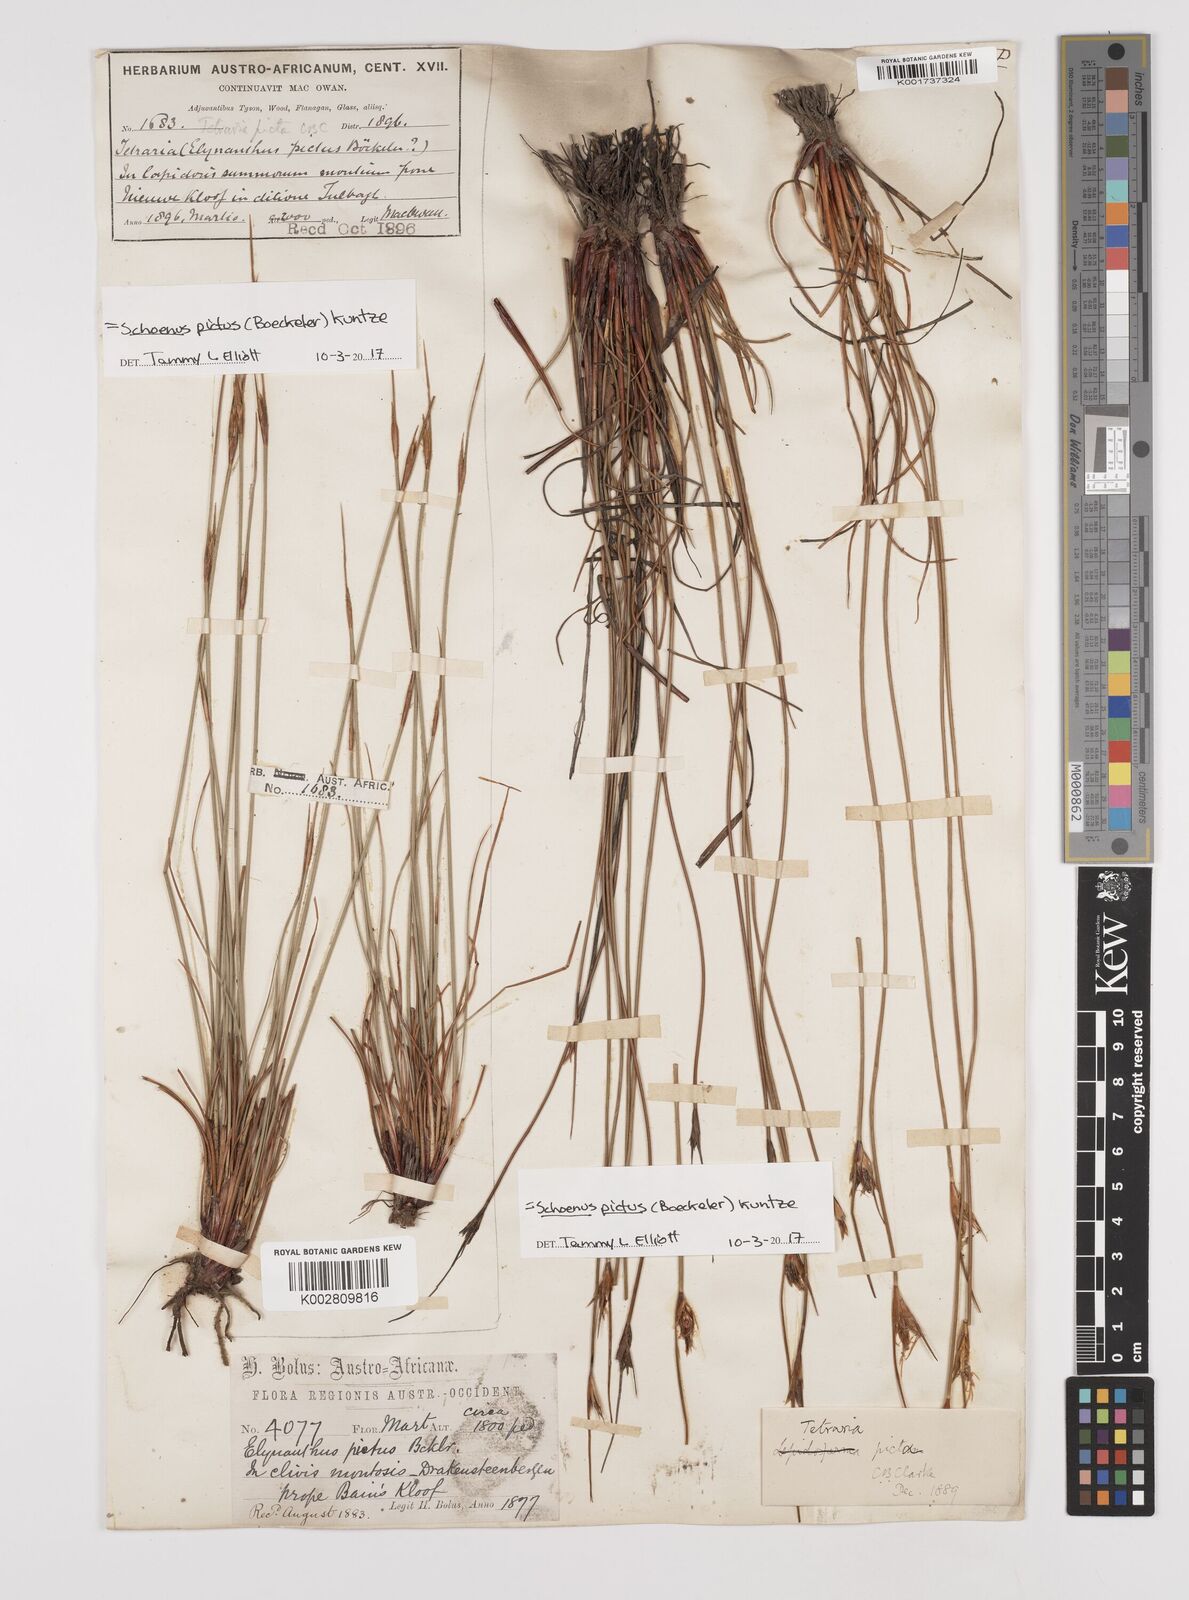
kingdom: Plantae
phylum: Tracheophyta
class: Liliopsida
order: Poales
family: Cyperaceae
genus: Schoenus
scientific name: Schoenus pictus
